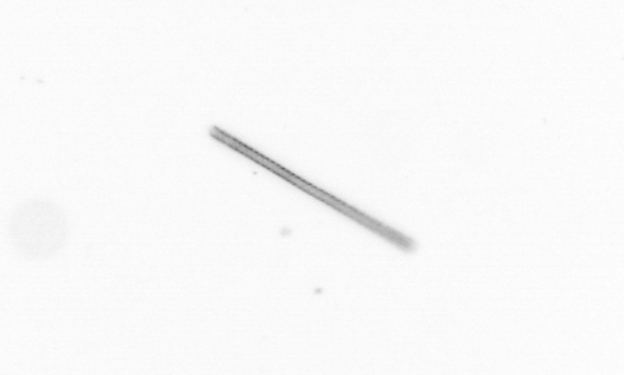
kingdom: Chromista
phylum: Ochrophyta
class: Bacillariophyceae
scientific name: Bacillariophyceae
